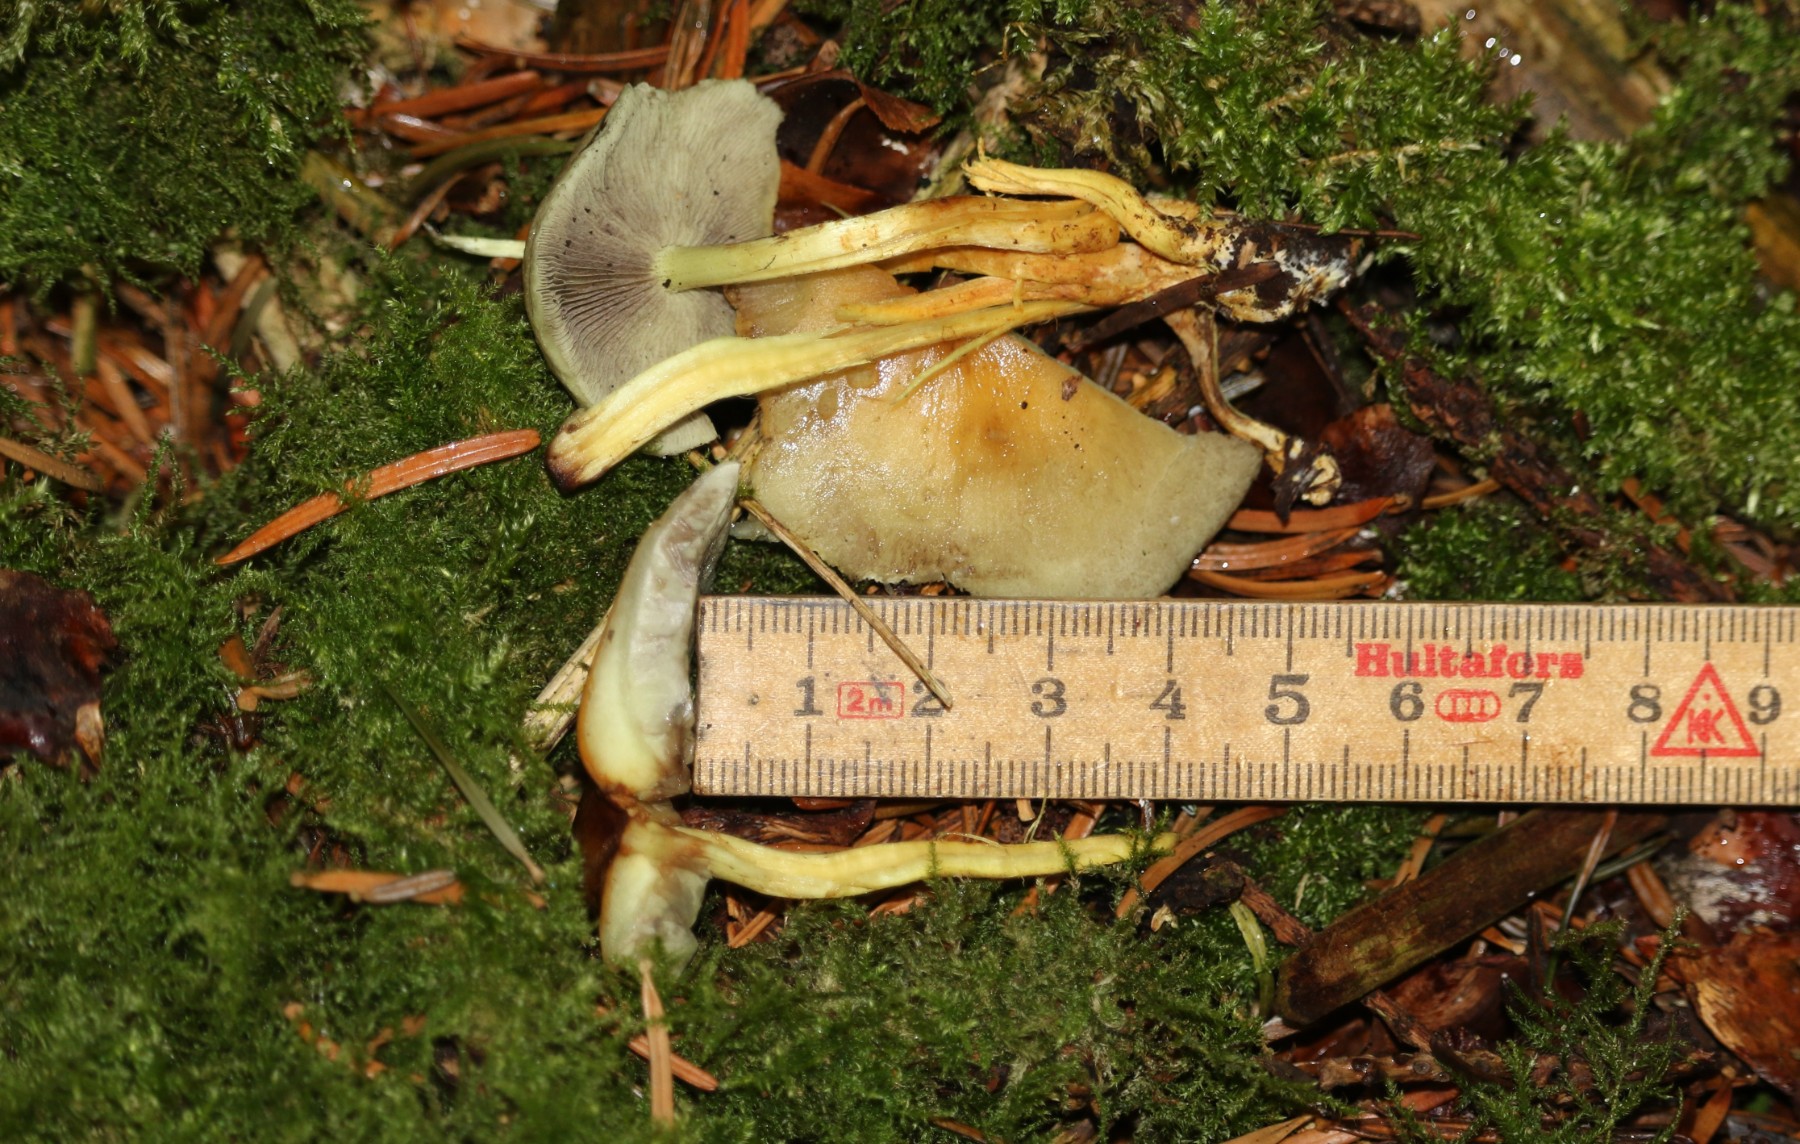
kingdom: Fungi
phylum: Basidiomycota
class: Agaricomycetes
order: Agaricales
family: Strophariaceae
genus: Hypholoma
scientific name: Hypholoma fasciculare
